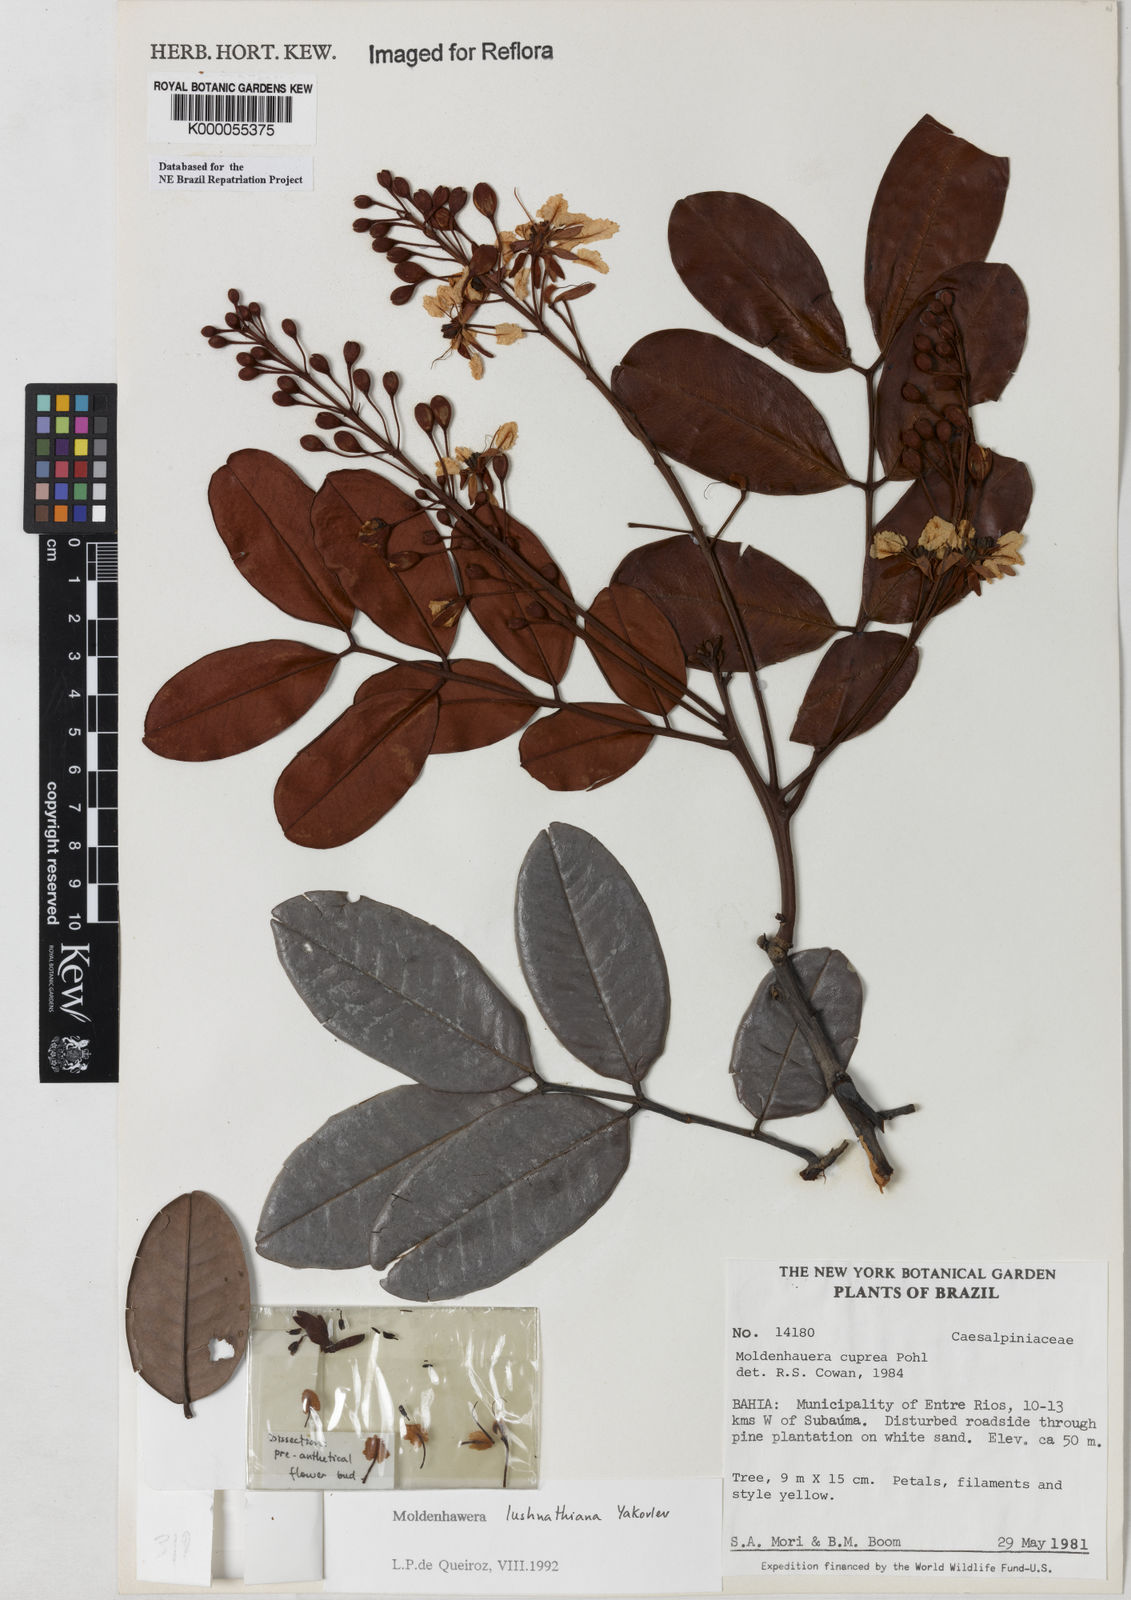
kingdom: Plantae
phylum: Tracheophyta
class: Magnoliopsida
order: Fabales
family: Fabaceae
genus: Moldenhawera
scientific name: Moldenhawera lushnathiana
